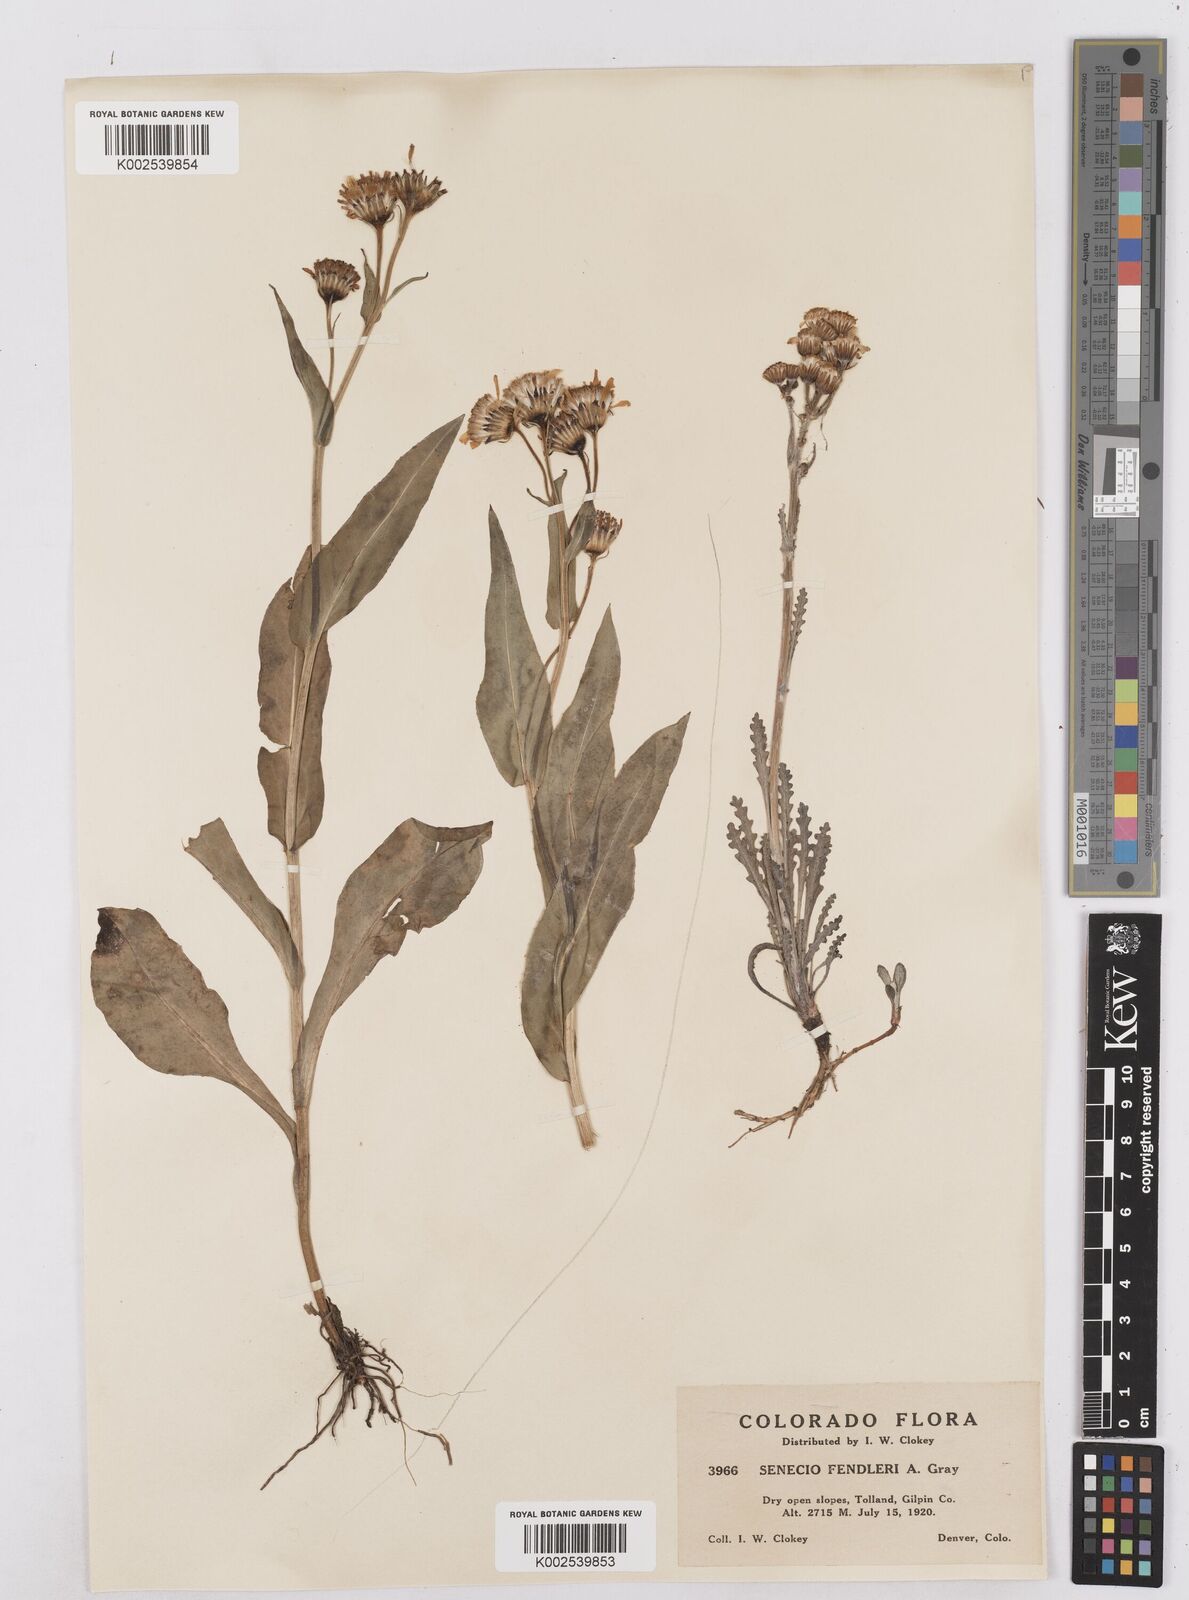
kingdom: Plantae
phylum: Tracheophyta
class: Magnoliopsida
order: Asterales
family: Asteraceae
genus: Packera
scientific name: Packera fendleri
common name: Notch-leaf butterweed
